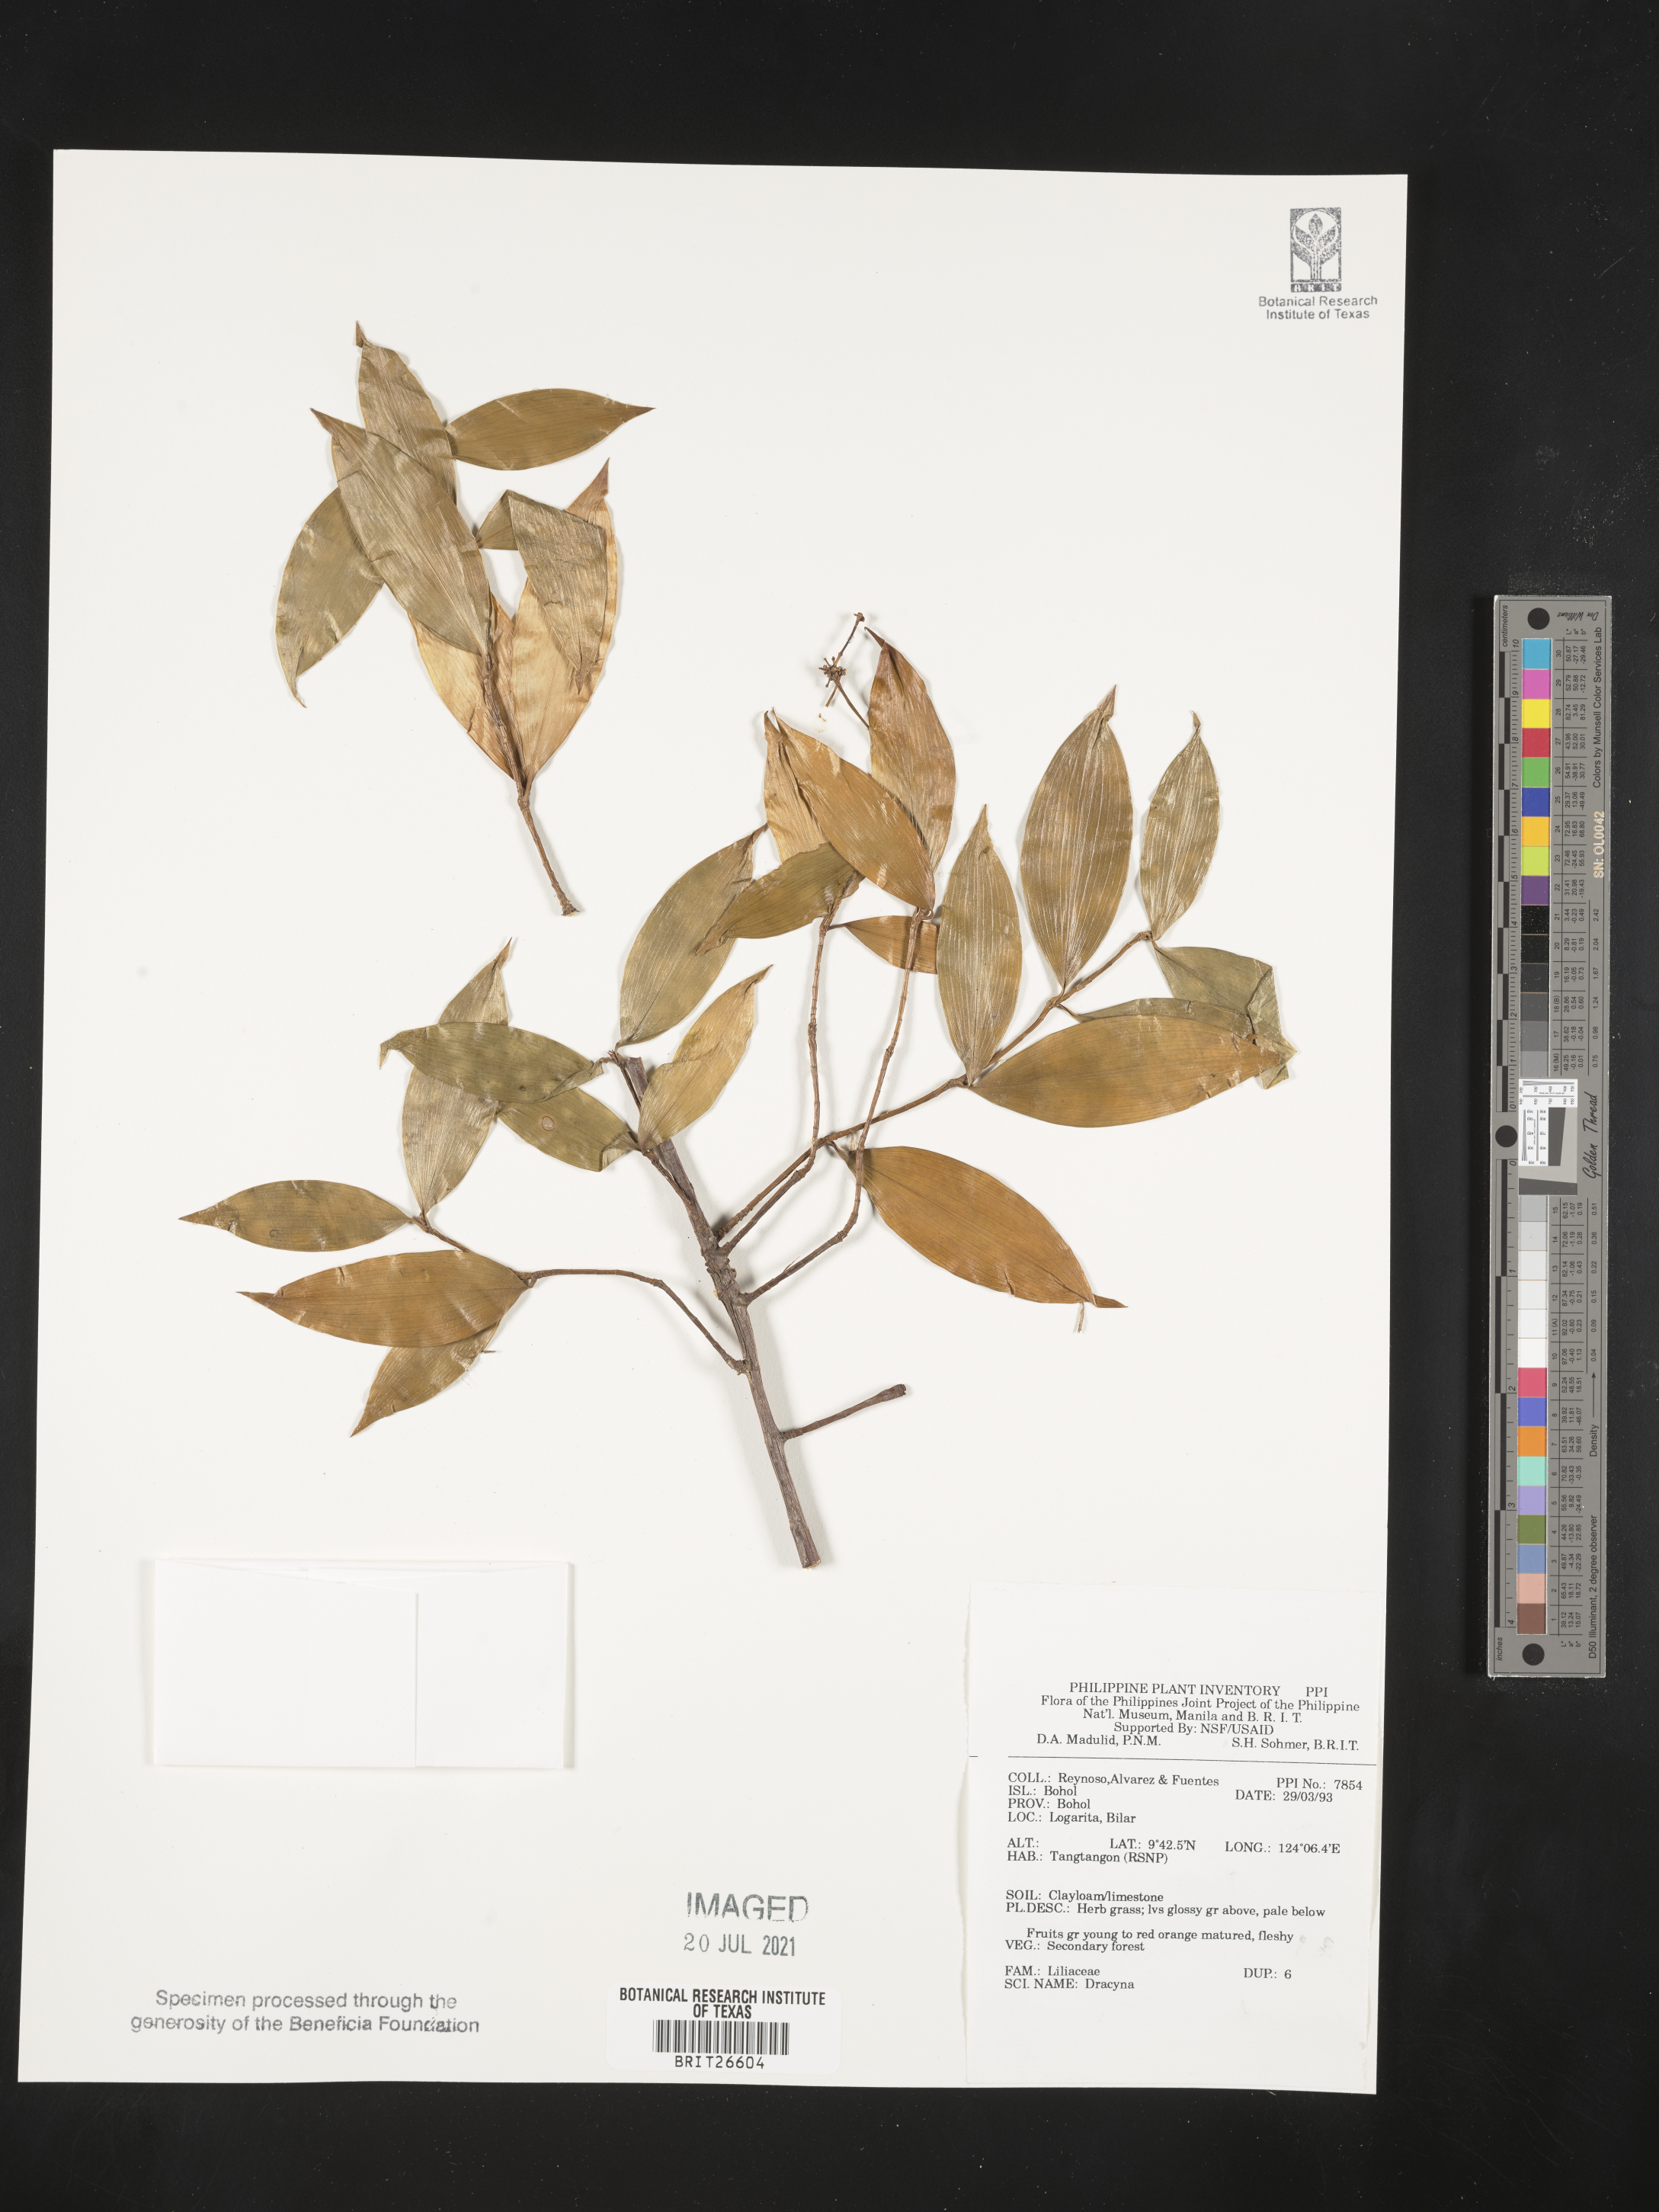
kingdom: Plantae
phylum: Tracheophyta
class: Liliopsida
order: Asparagales
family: Asparagaceae
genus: Dracaena
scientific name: Dracaena
